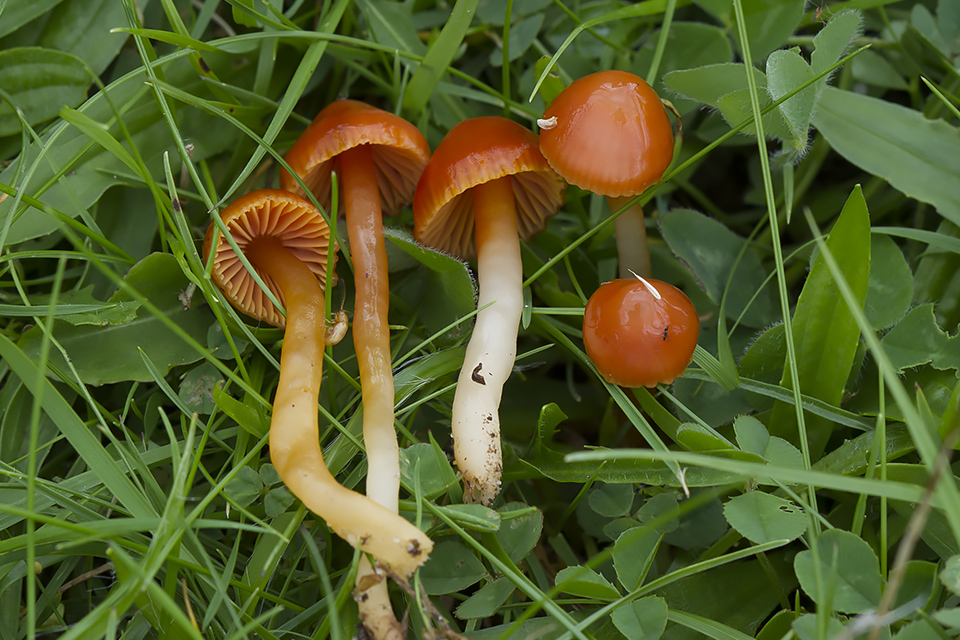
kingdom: Fungi
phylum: Basidiomycota
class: Agaricomycetes
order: Agaricales
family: Hygrophoraceae
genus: Gliophorus
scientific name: Gliophorus psittacinus
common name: Parrot wax-cap
